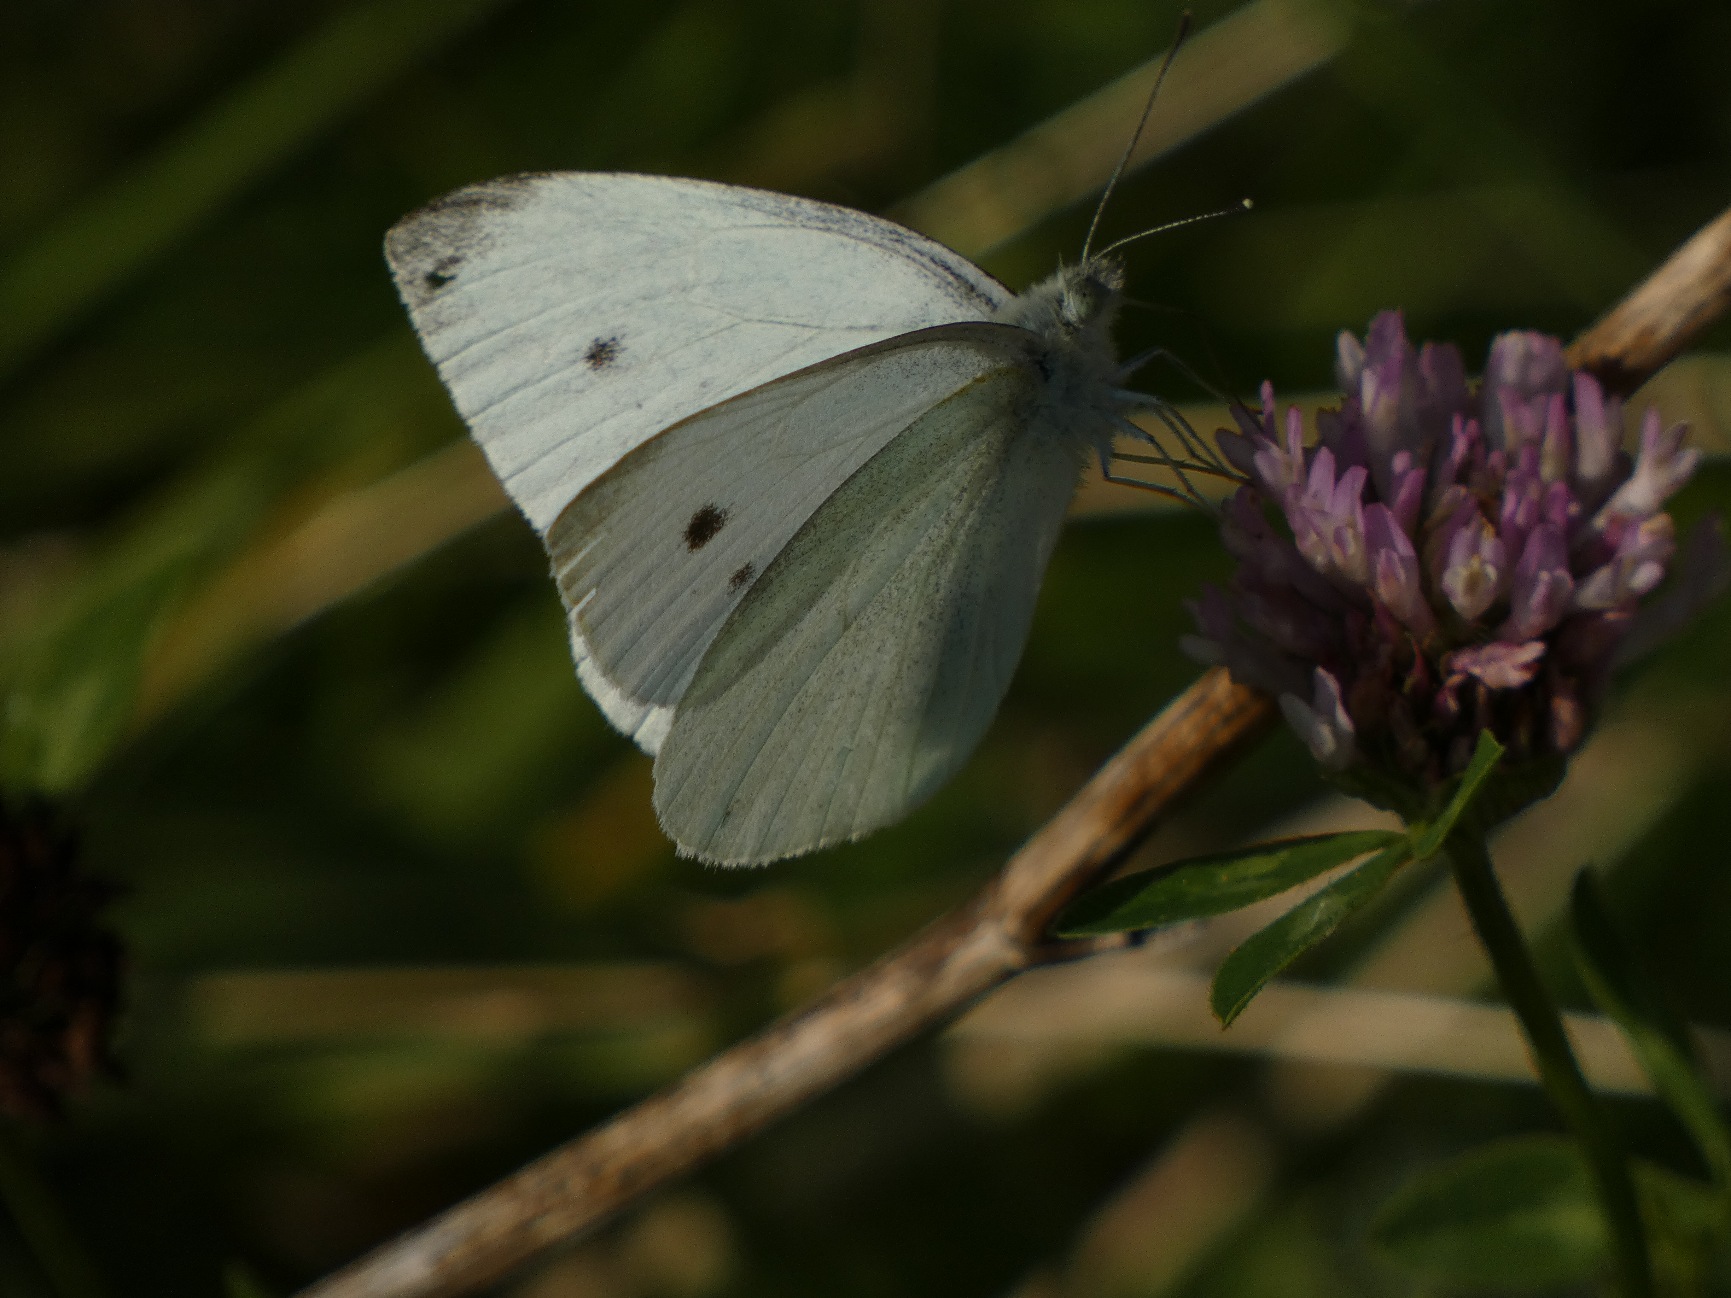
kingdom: Animalia
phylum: Arthropoda
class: Insecta
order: Lepidoptera
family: Pieridae
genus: Pieris
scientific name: Pieris rapae
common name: Lille kålsommerfugl
